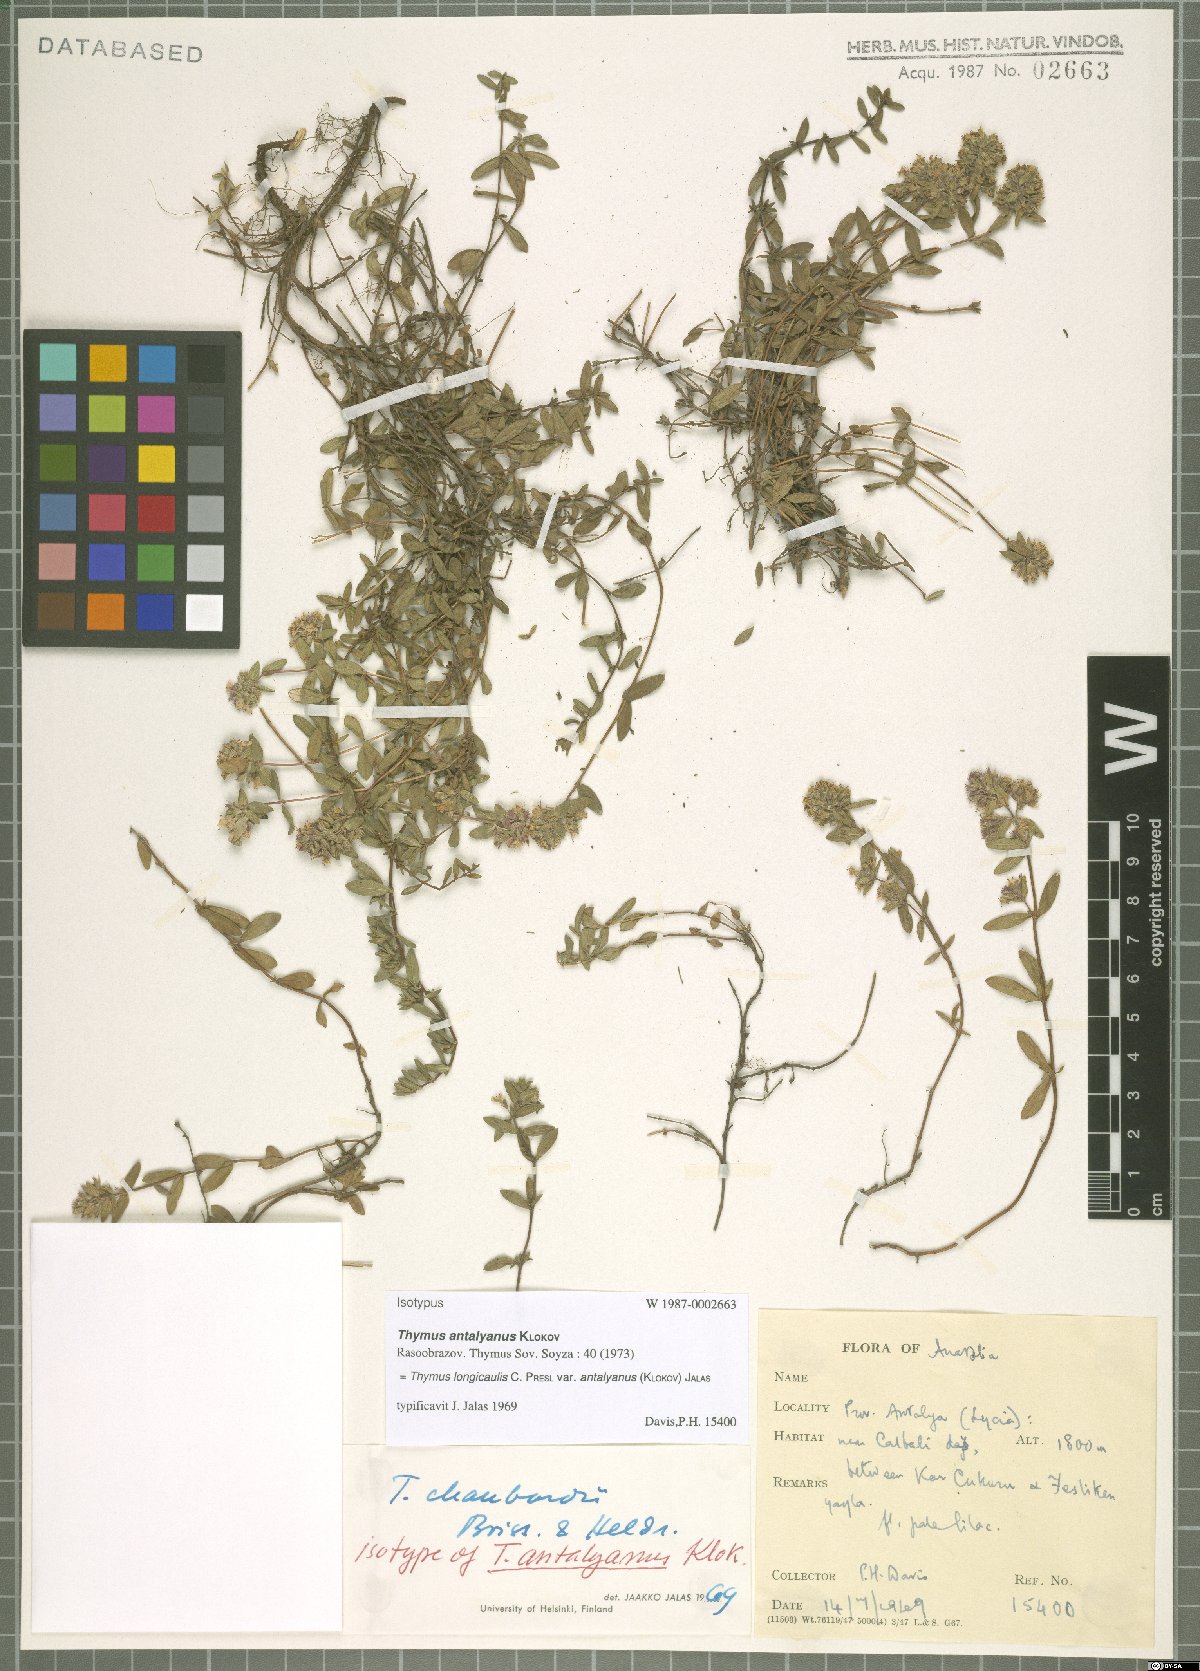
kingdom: Plantae
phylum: Tracheophyta
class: Magnoliopsida
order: Lamiales
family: Lamiaceae
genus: Thymus
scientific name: Thymus longicaulis
